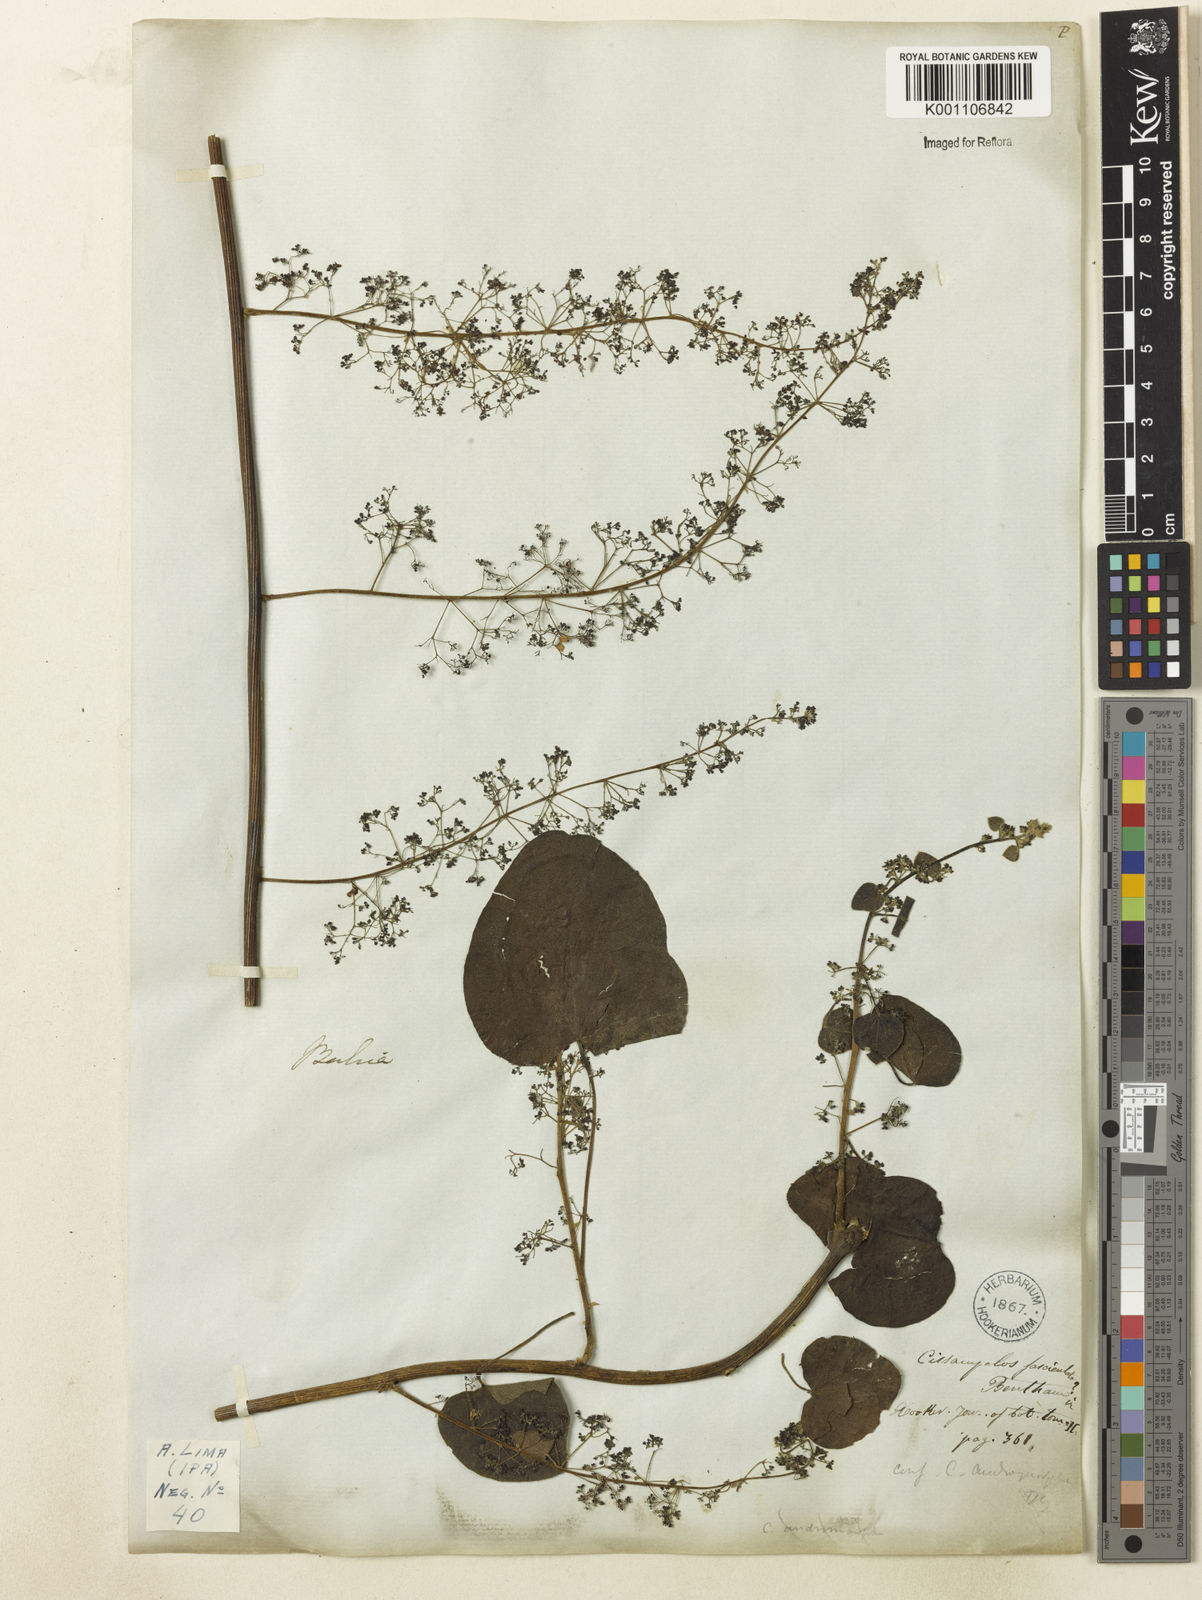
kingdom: Plantae
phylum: Tracheophyta
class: Magnoliopsida
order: Ranunculales
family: Menispermaceae
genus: Cissampelos
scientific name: Cissampelos andromorpha
